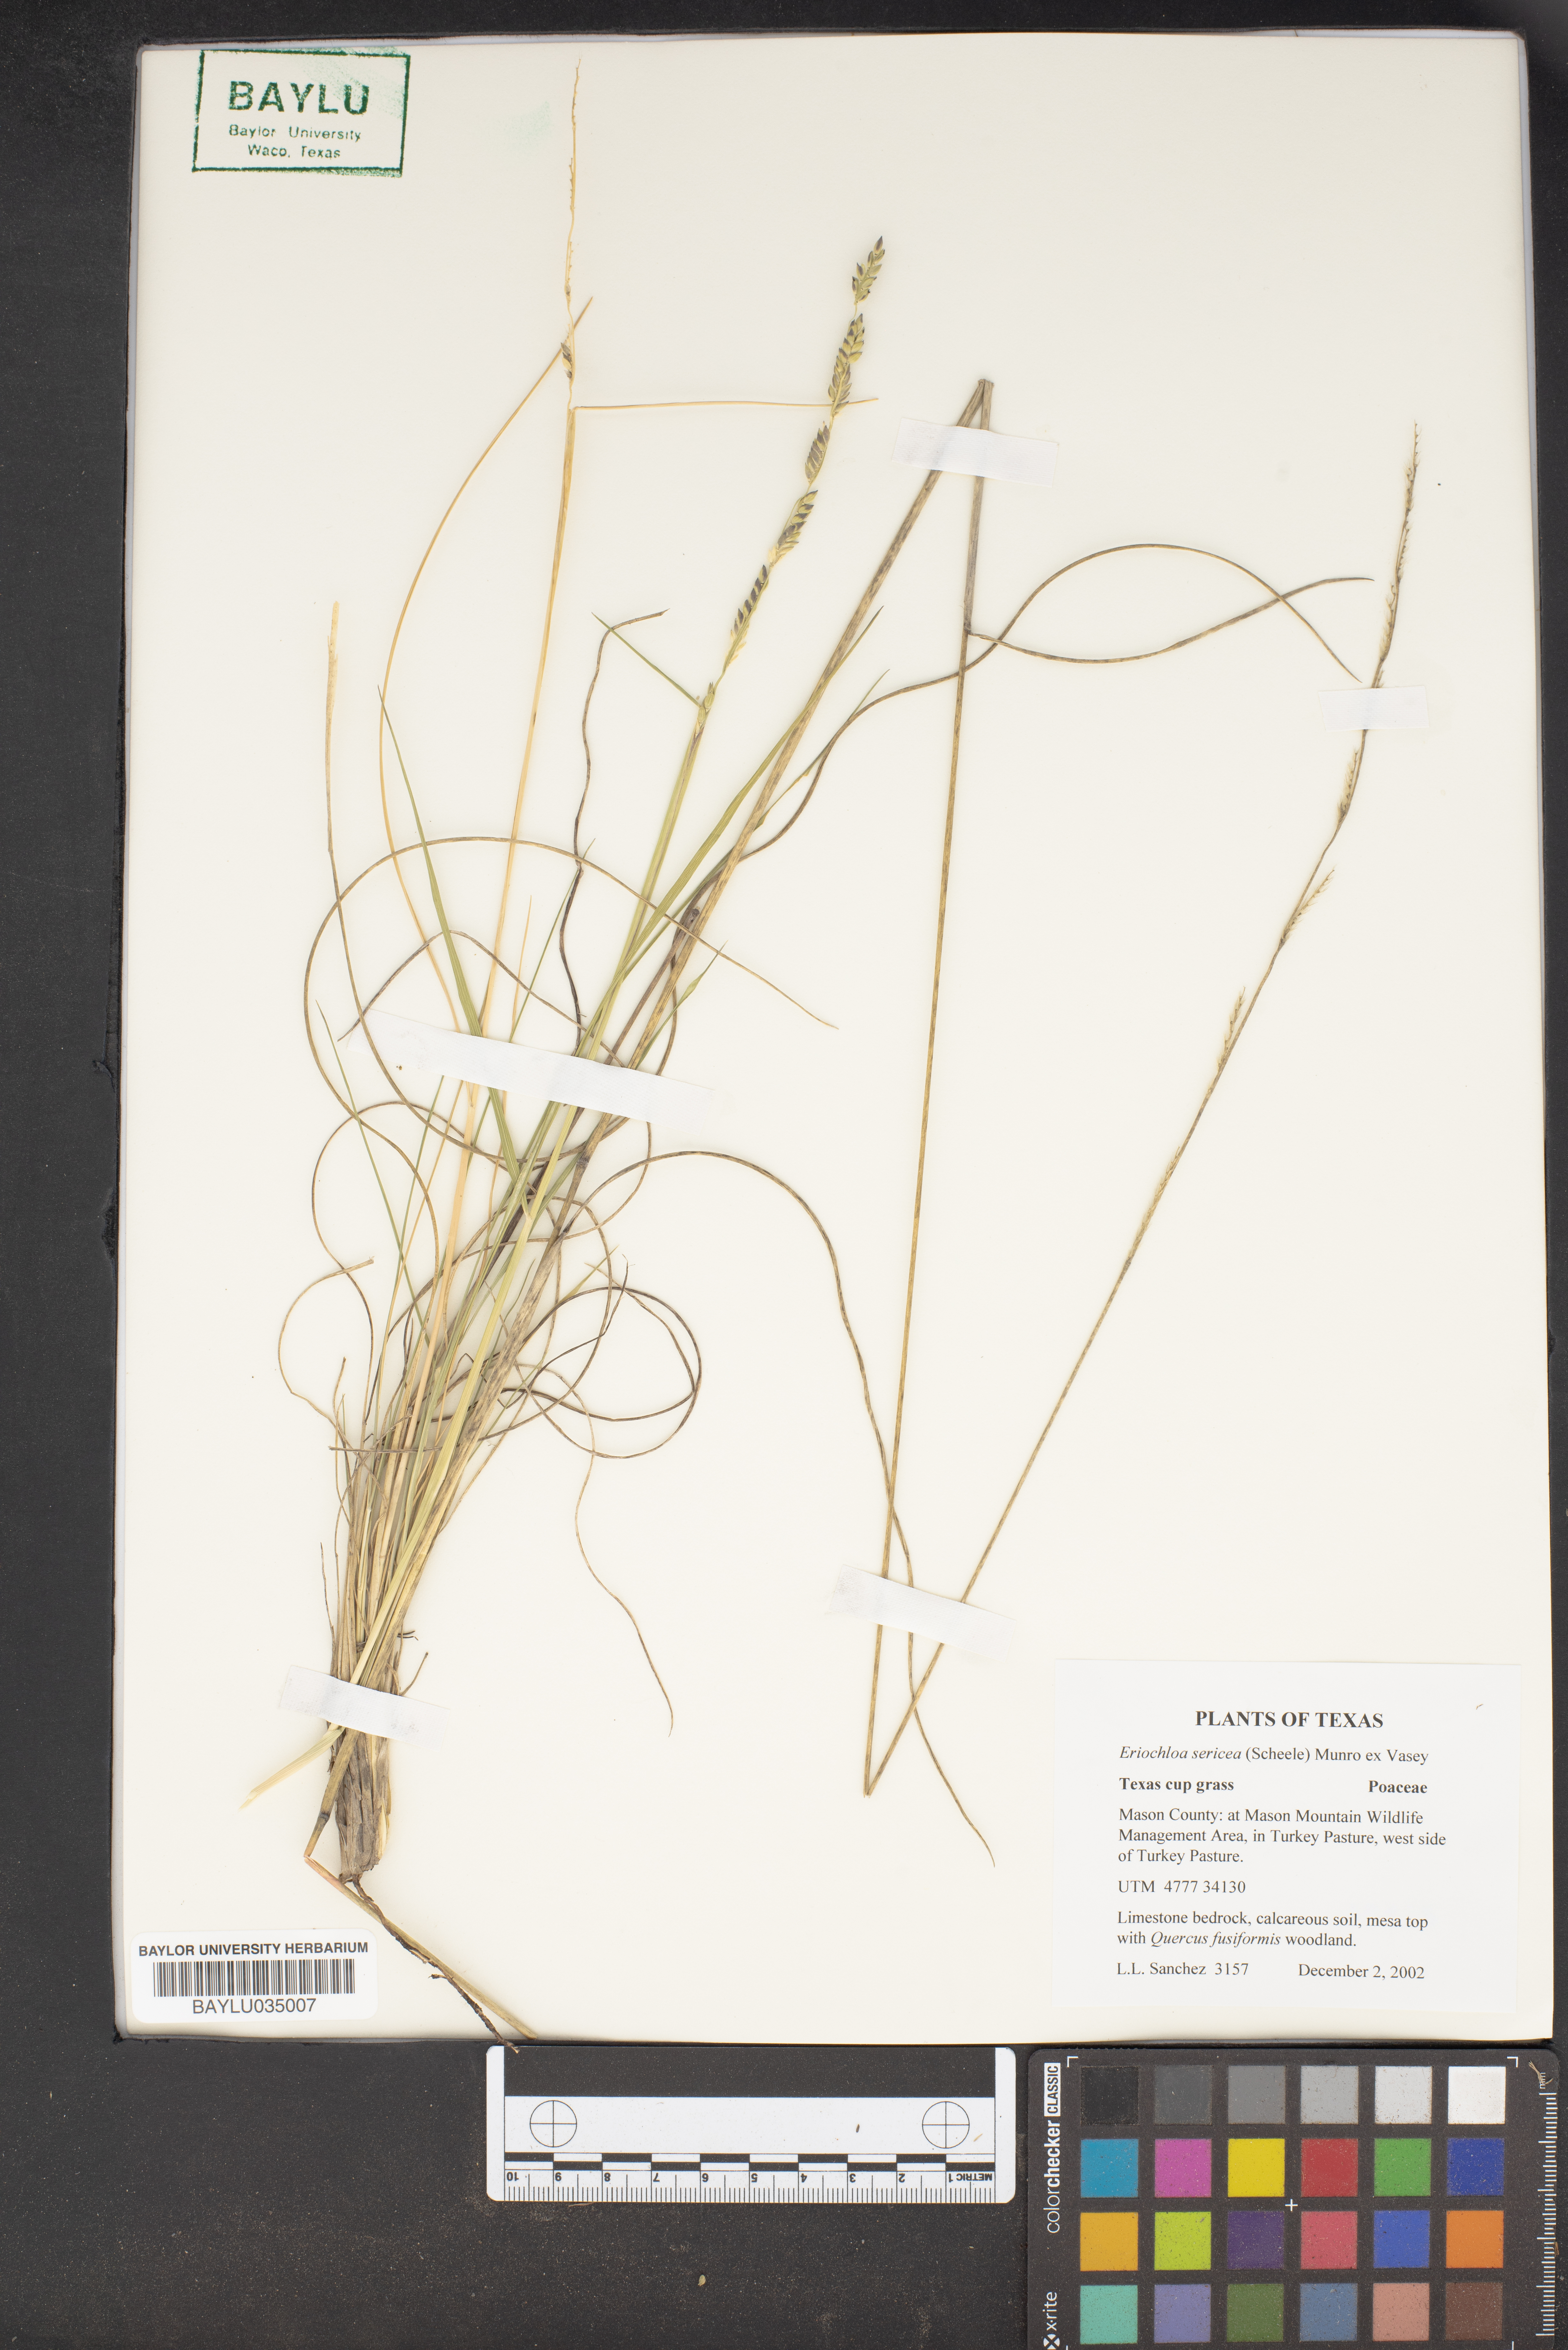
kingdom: Plantae
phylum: Tracheophyta
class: Liliopsida
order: Poales
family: Poaceae
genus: Eriochloa
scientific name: Eriochloa sericea
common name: Texas cup grass
